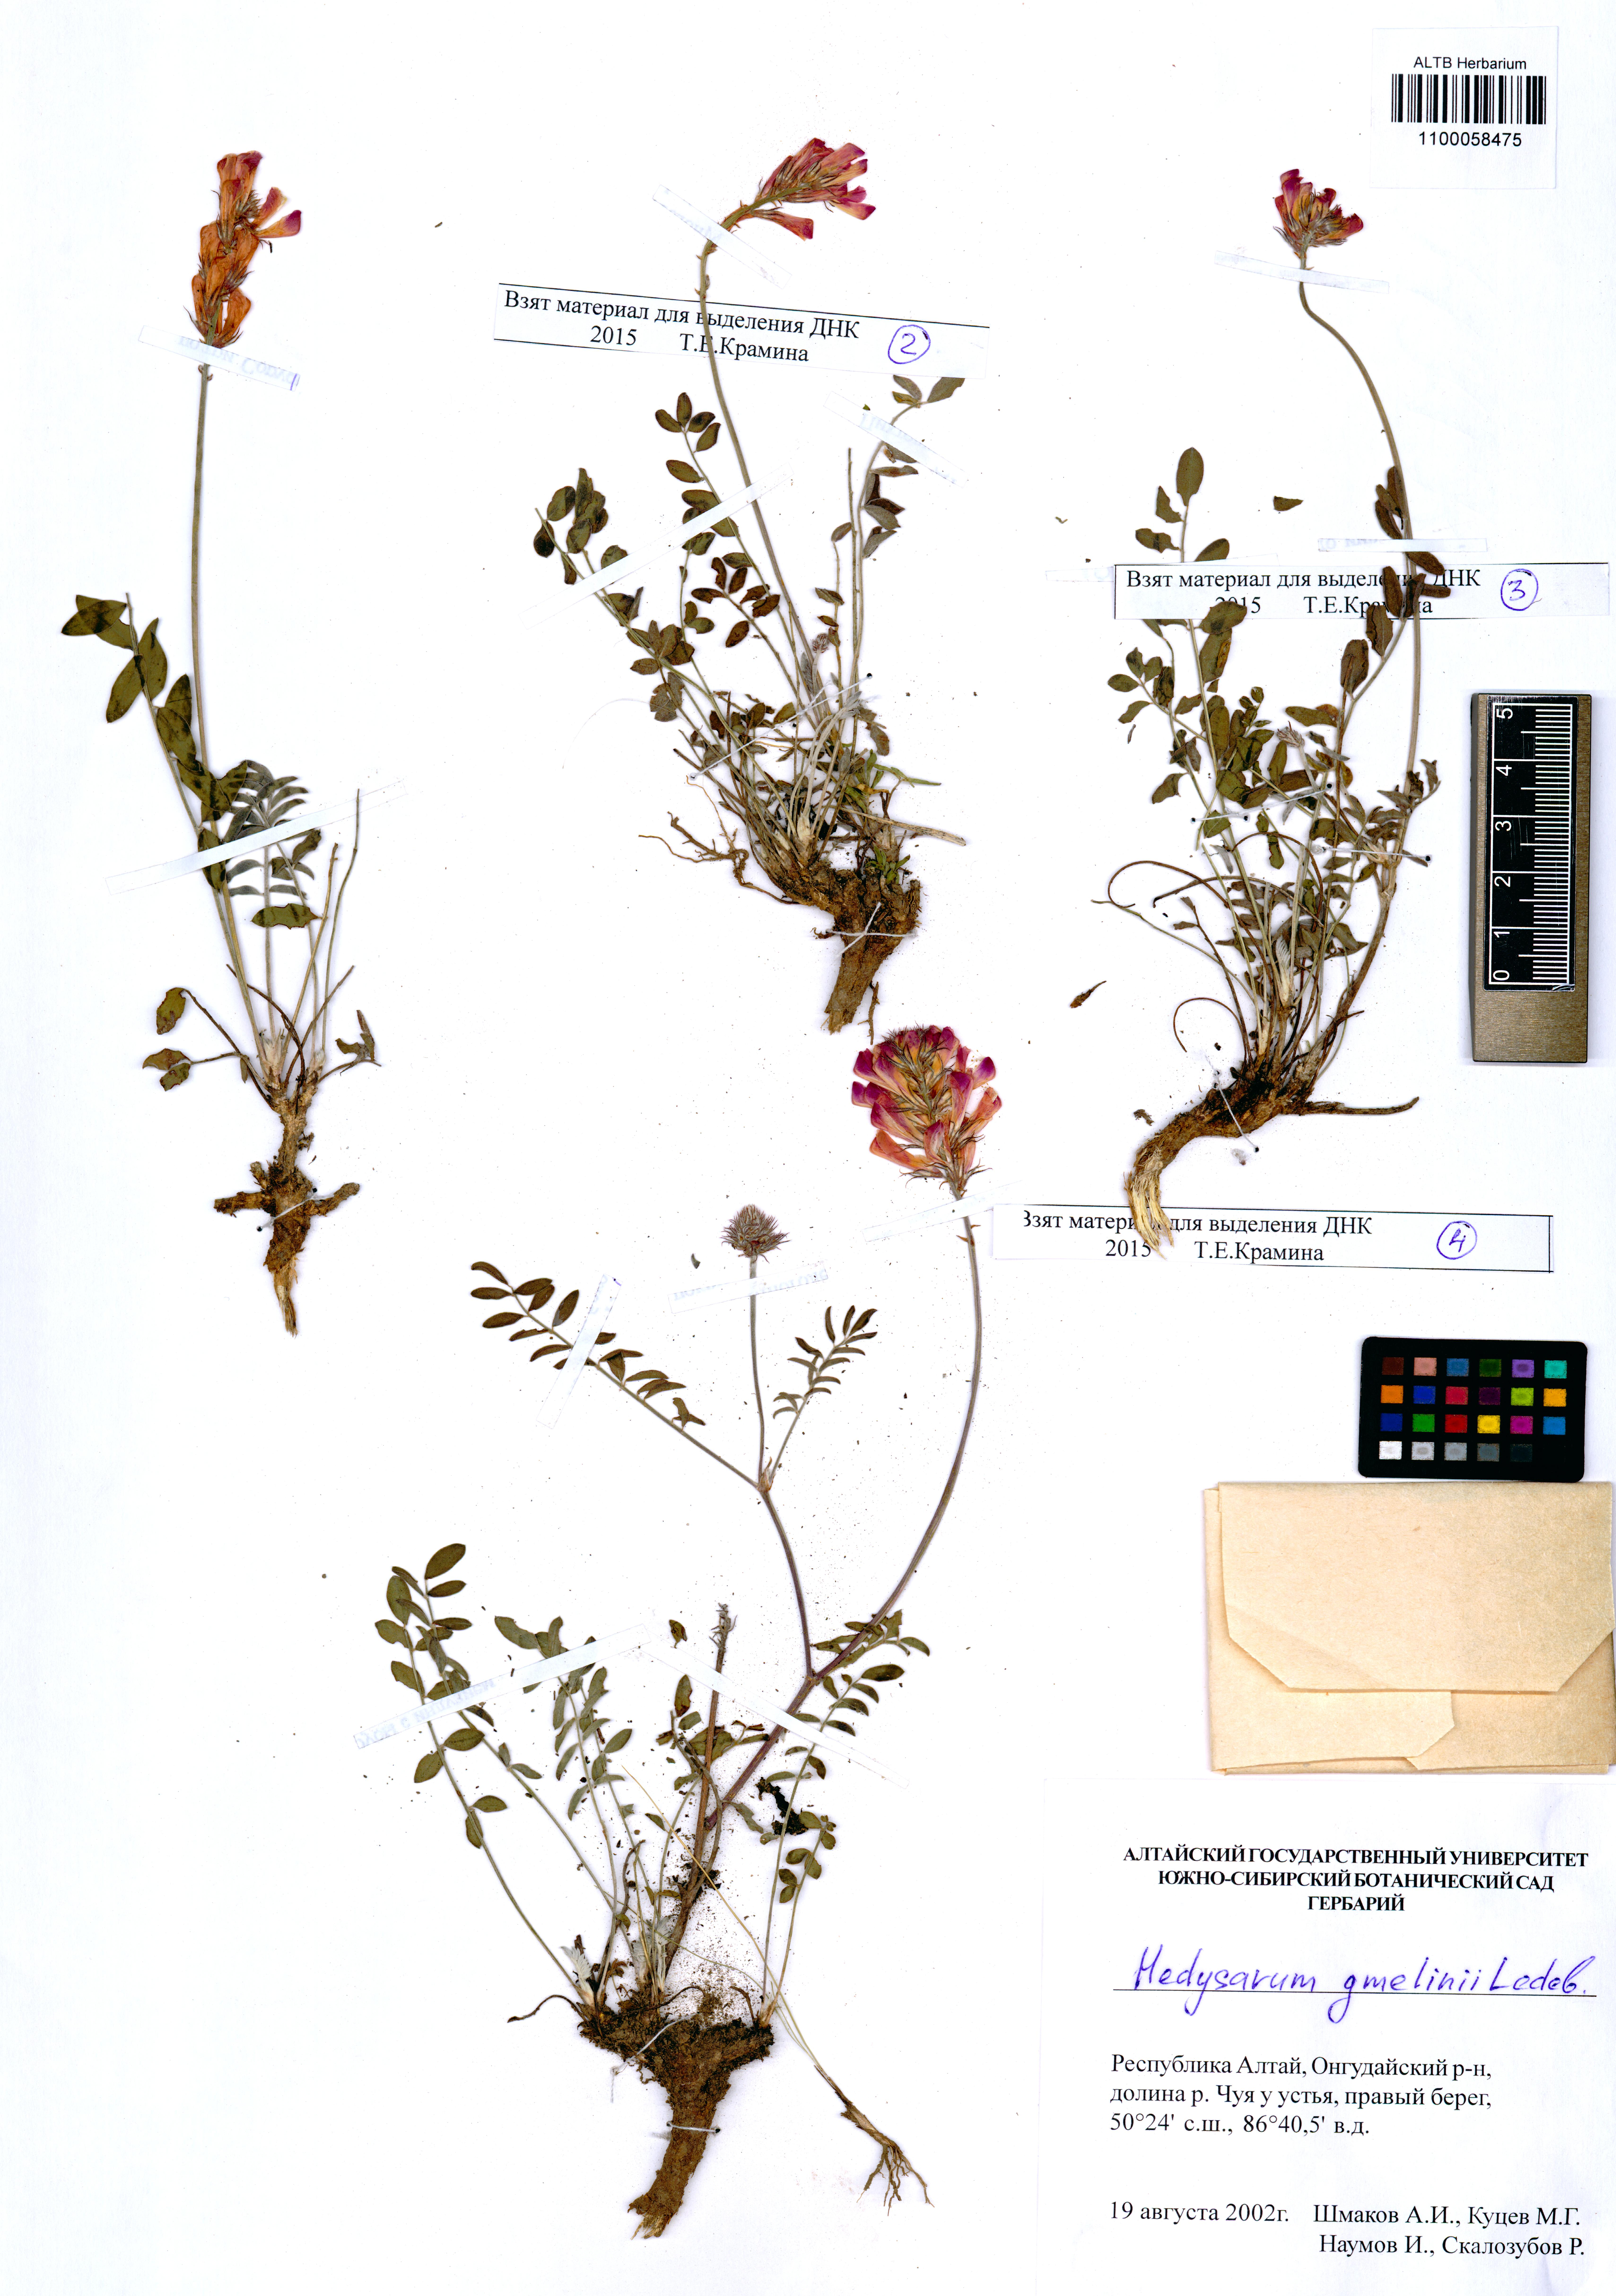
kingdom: Plantae
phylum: Tracheophyta
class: Magnoliopsida
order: Fabales
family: Fabaceae
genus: Hedysarum
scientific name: Hedysarum gmelinii
